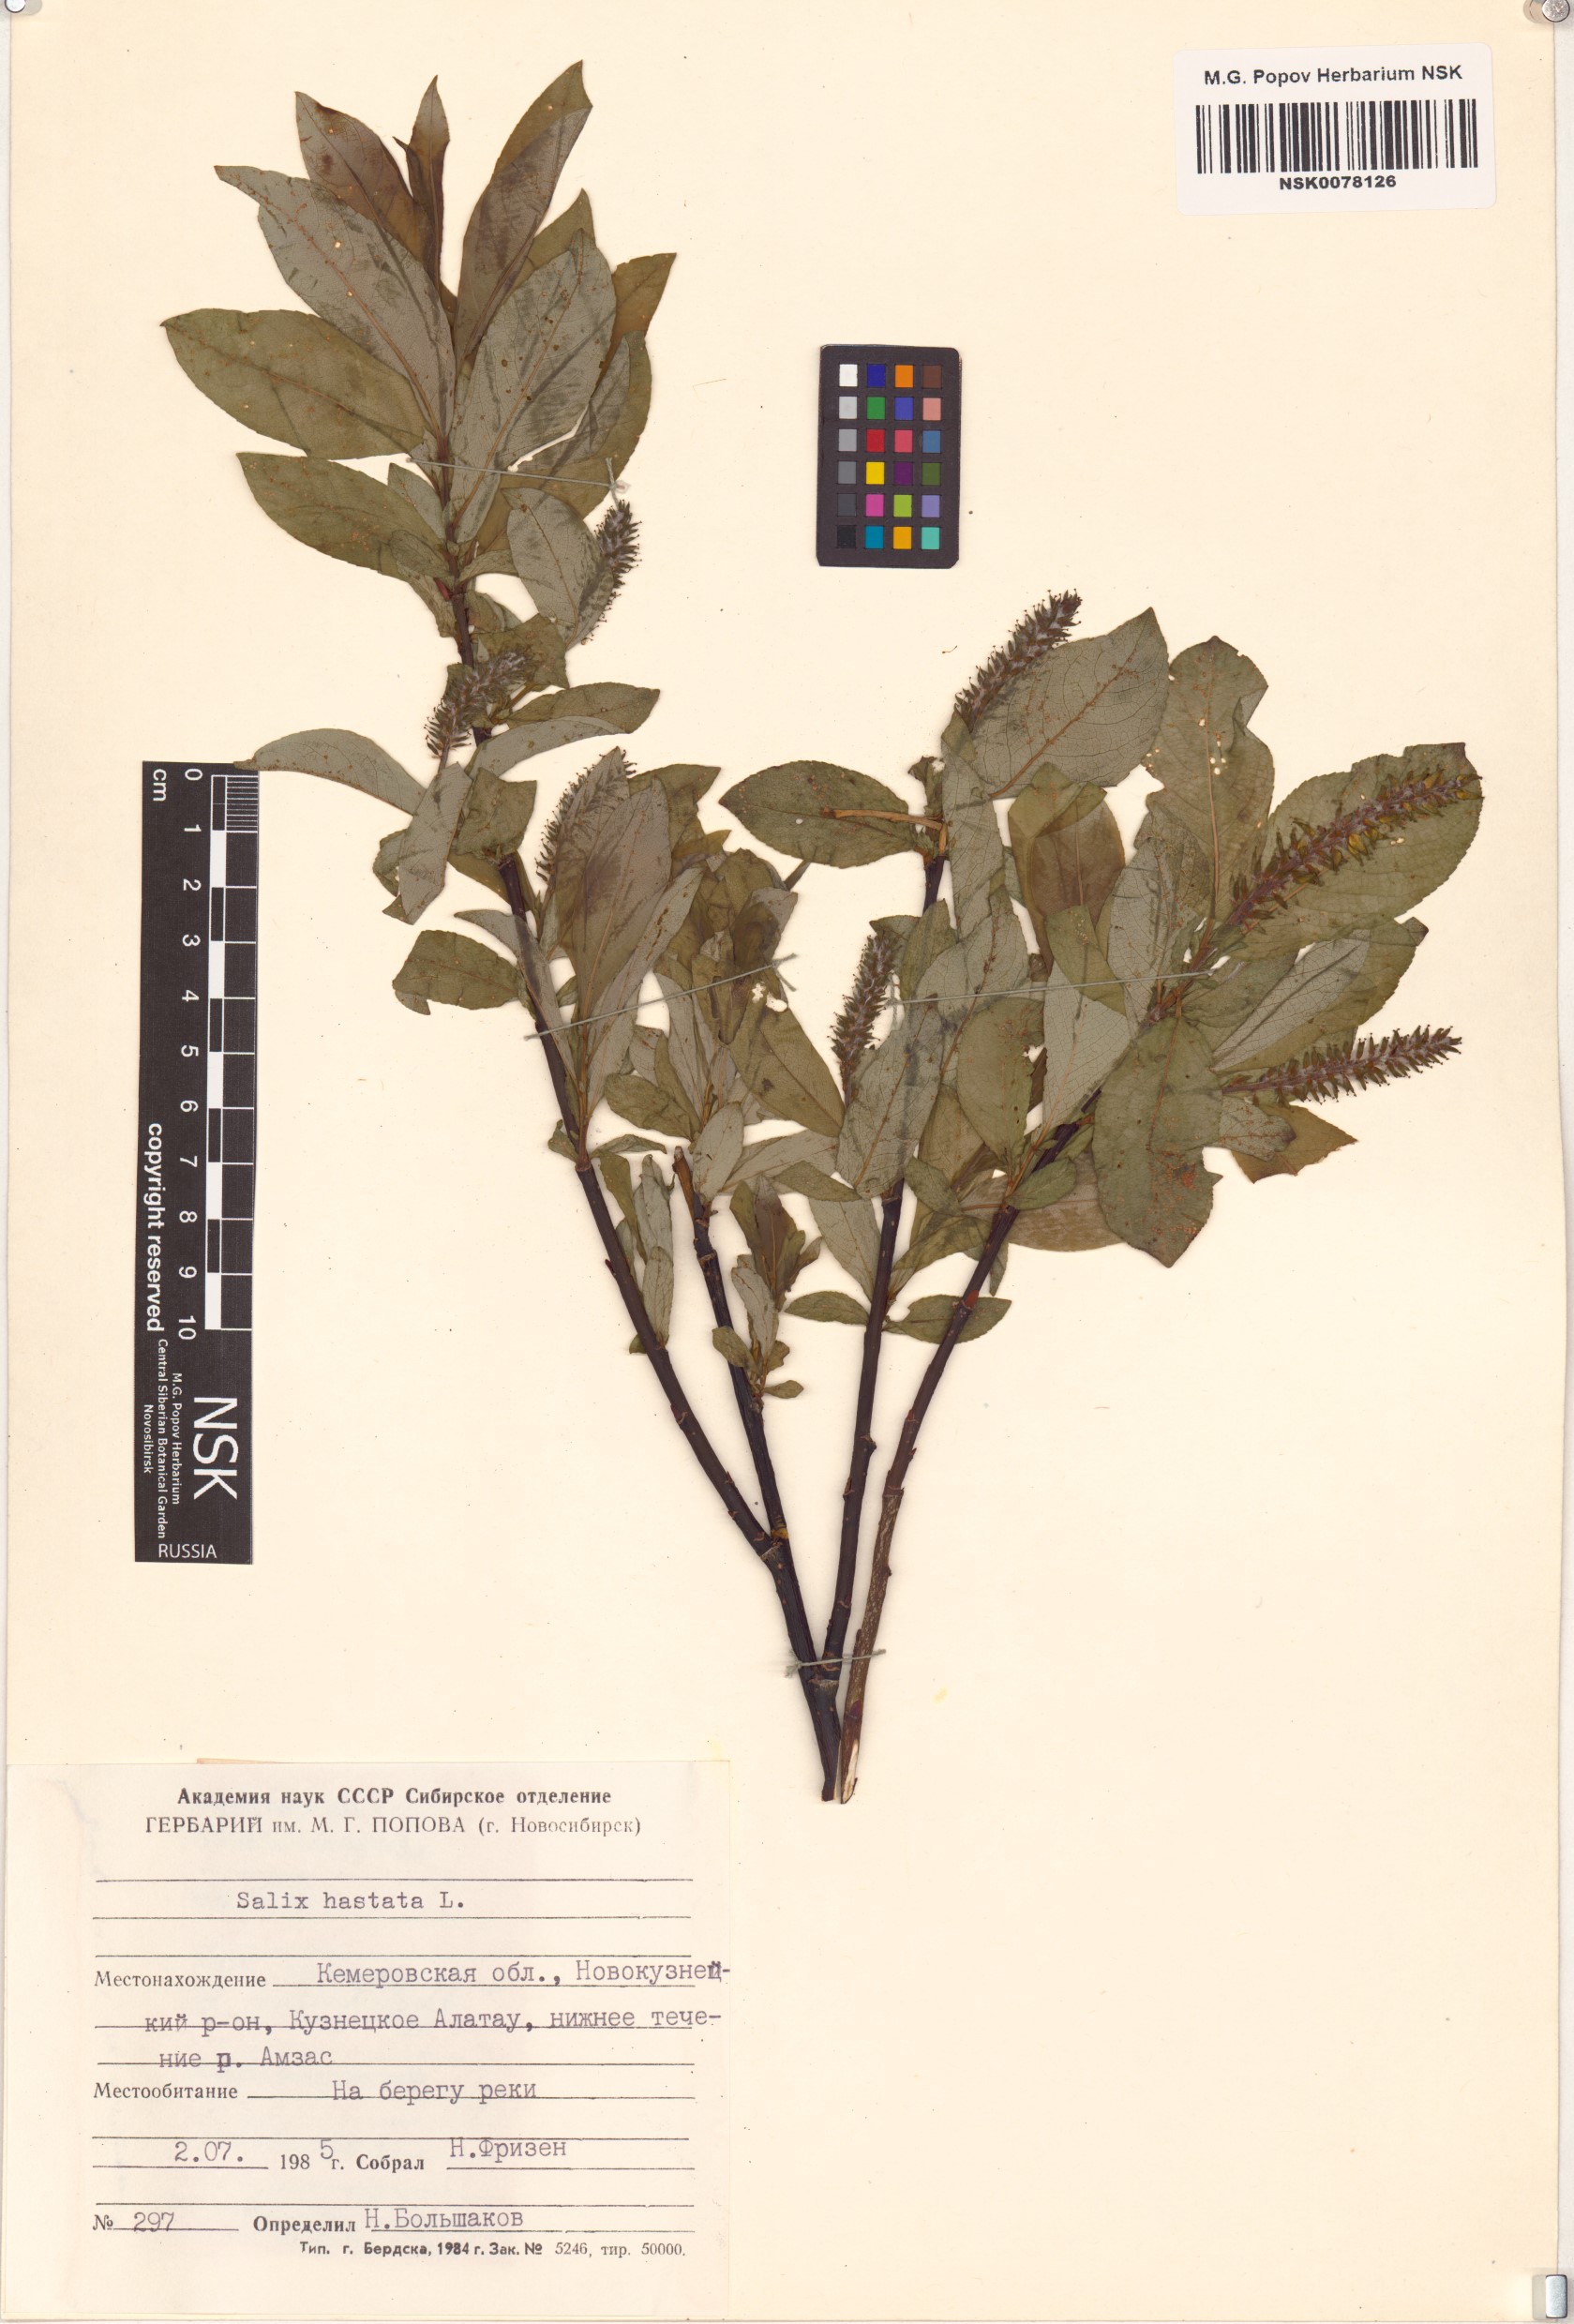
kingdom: Plantae
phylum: Tracheophyta
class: Magnoliopsida
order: Malpighiales
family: Salicaceae
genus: Salix
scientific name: Salix hastata
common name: Halberd willow
